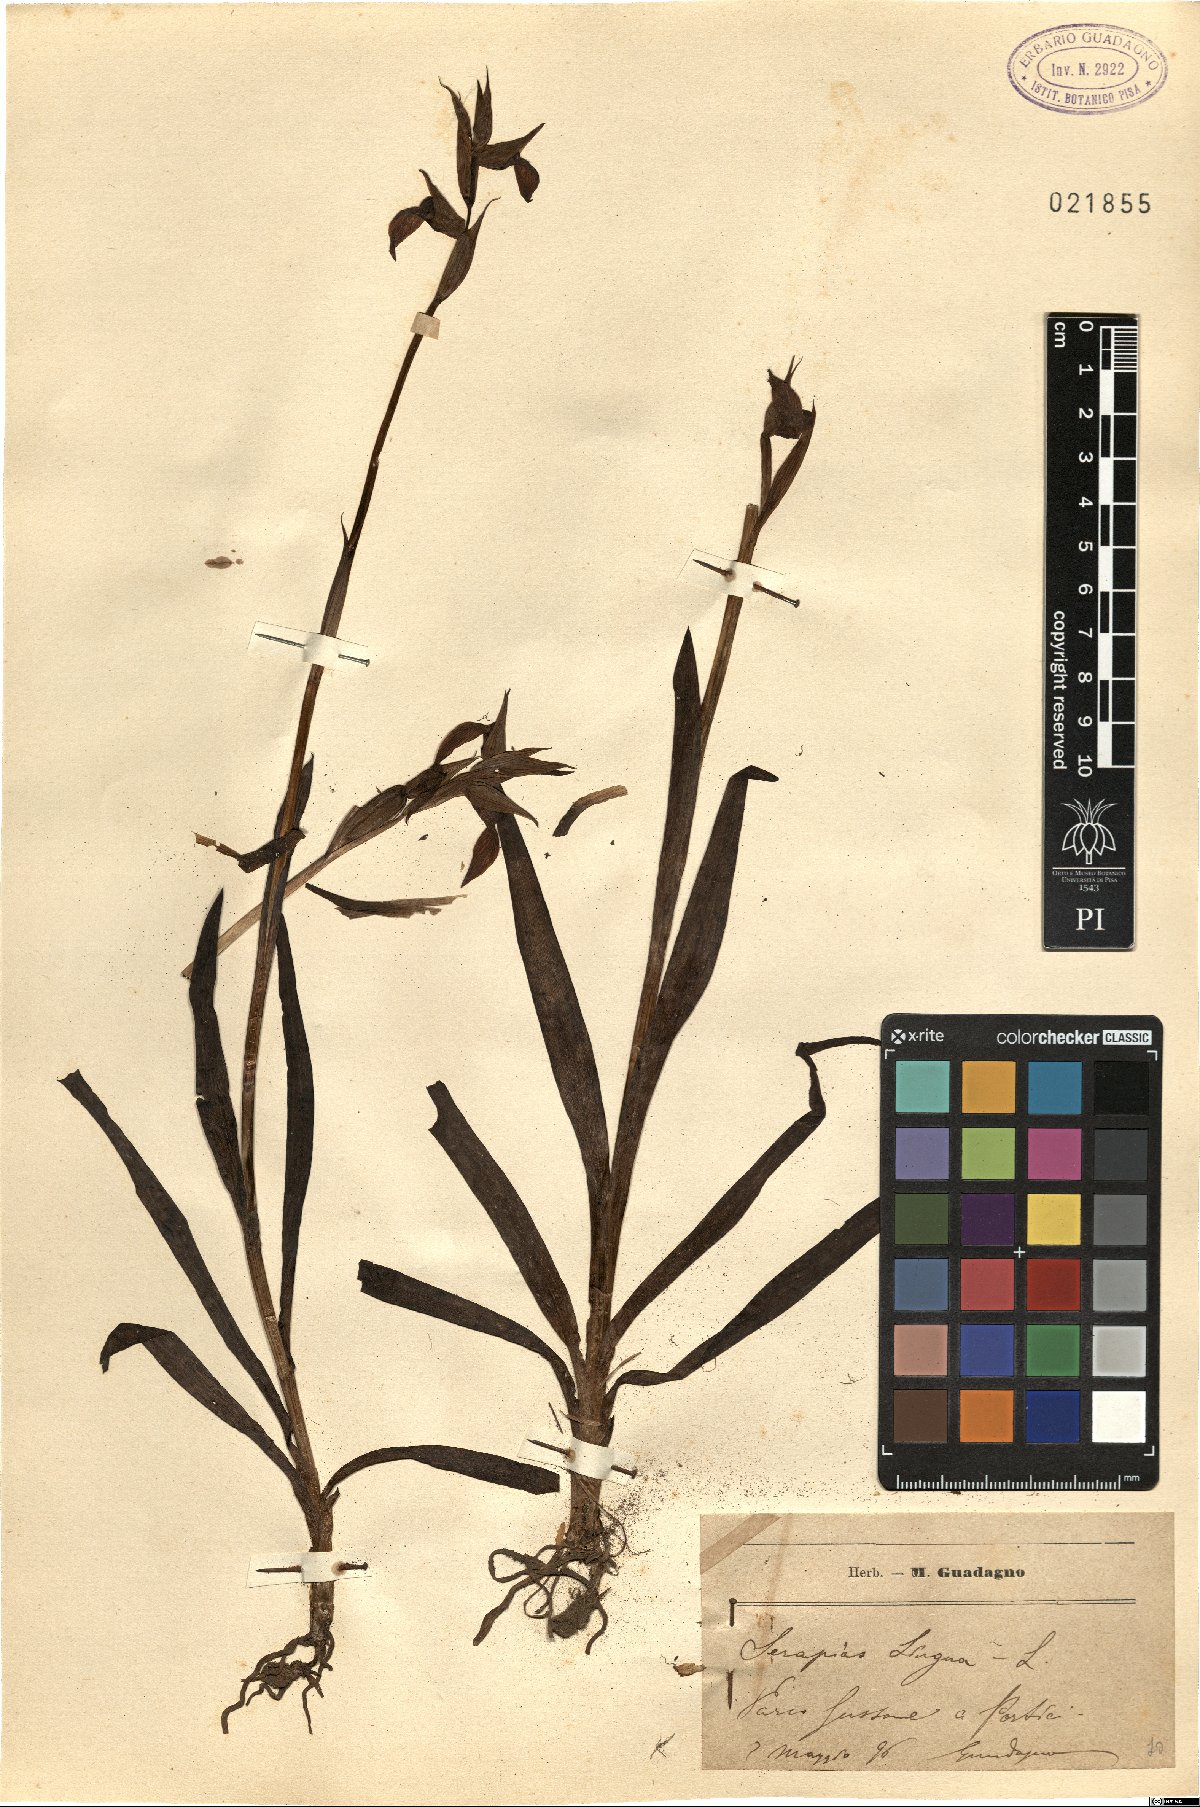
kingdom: Plantae
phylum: Tracheophyta
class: Liliopsida
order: Asparagales
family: Orchidaceae
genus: Serapias
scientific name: Serapias lingua
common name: Tongue-orchid
